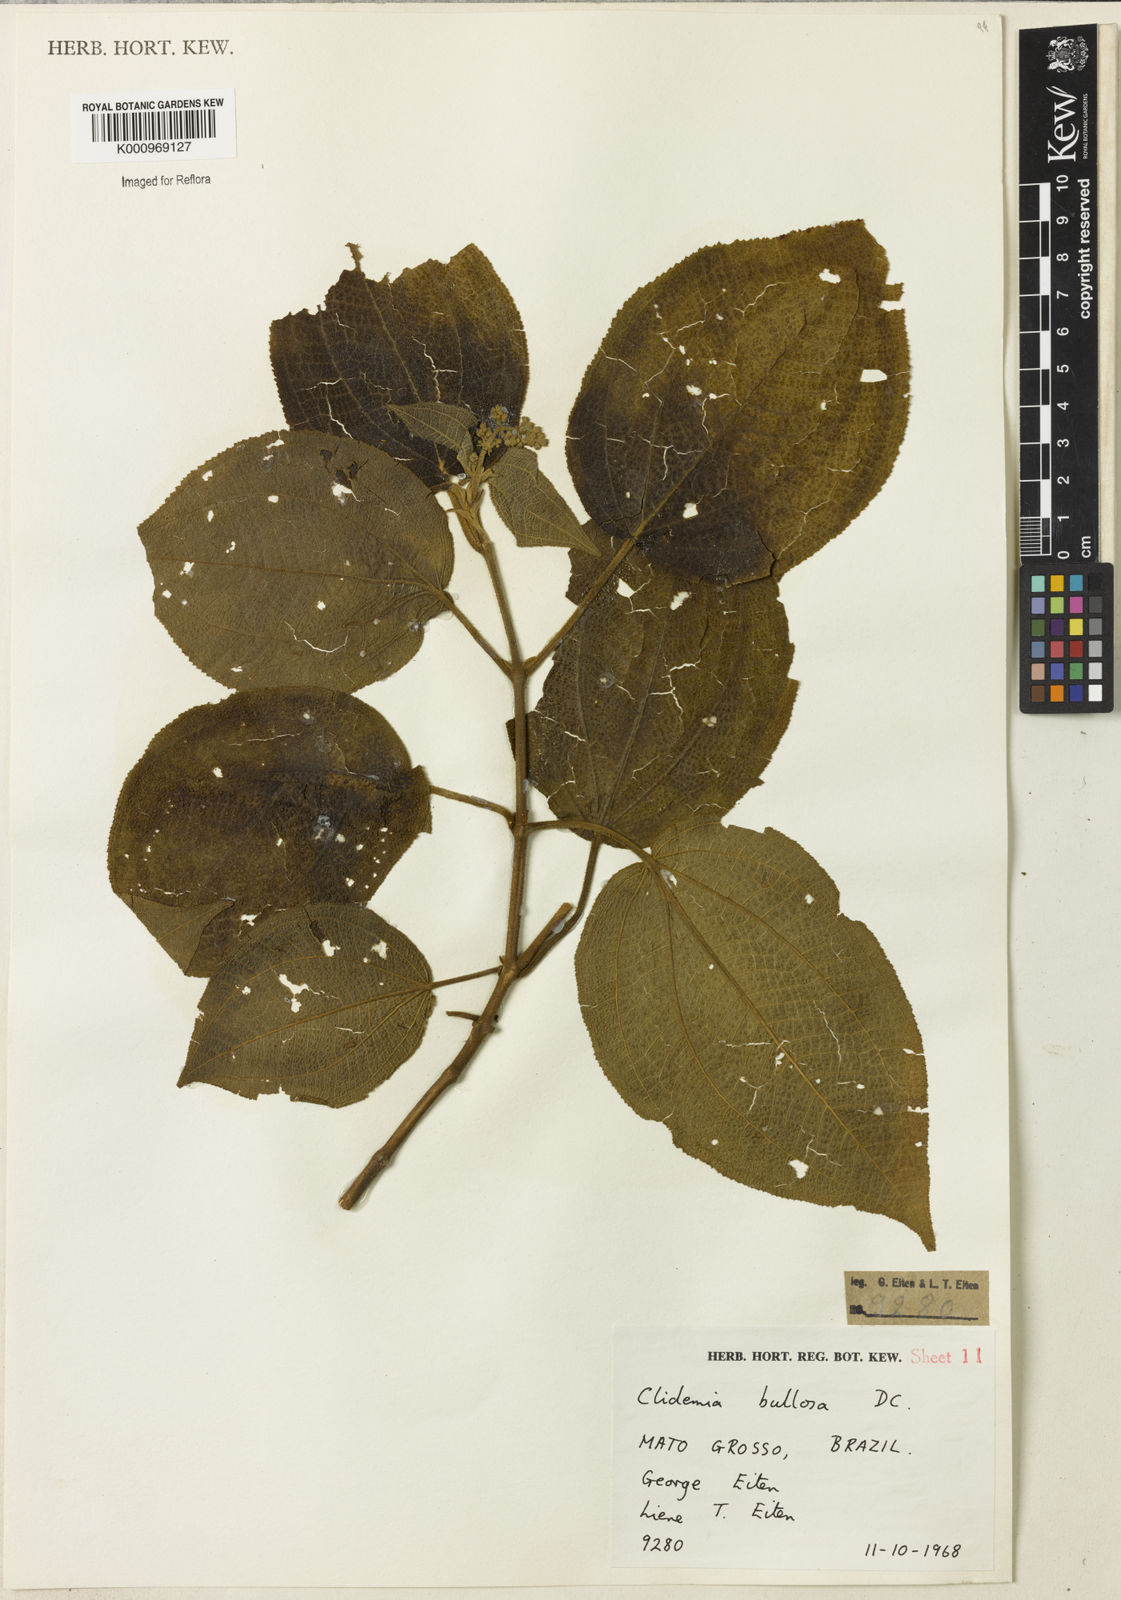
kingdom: Plantae
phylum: Tracheophyta
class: Magnoliopsida
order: Myrtales
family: Melastomataceae
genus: Miconia
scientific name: Miconia biserrata
